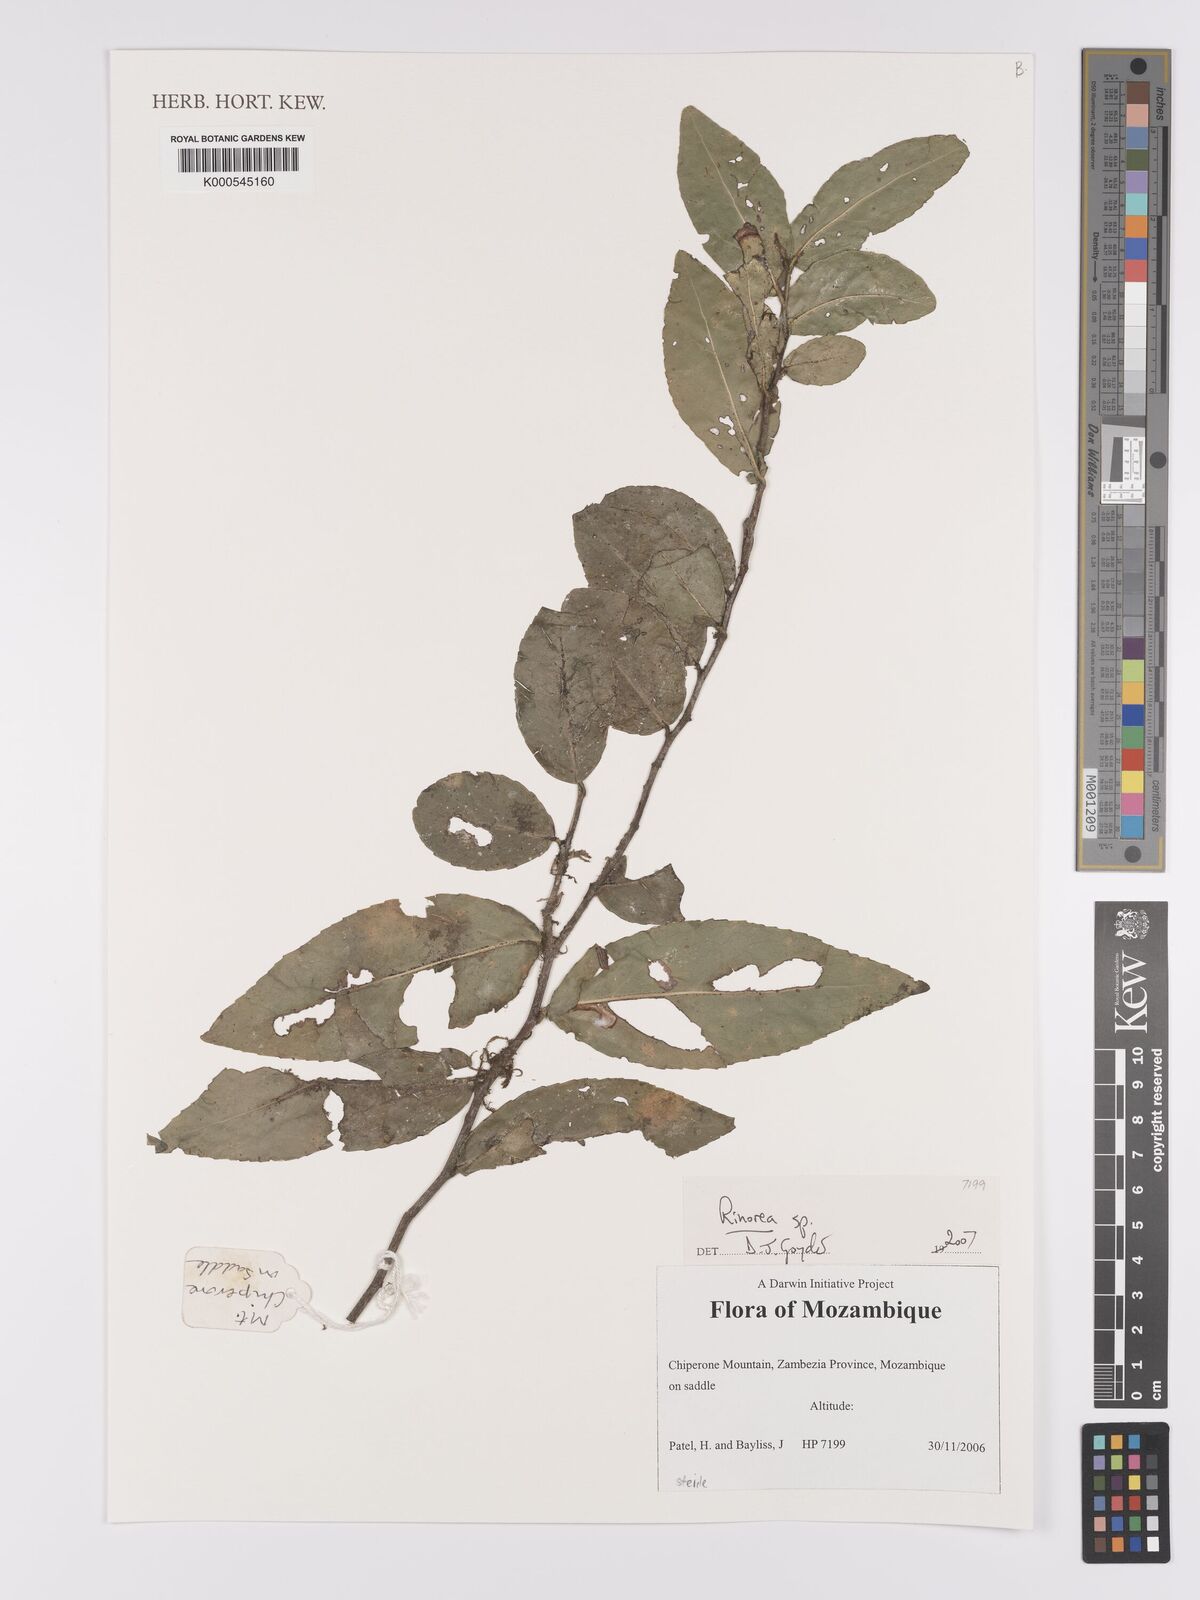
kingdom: Plantae
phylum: Tracheophyta
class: Magnoliopsida
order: Malpighiales
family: Violaceae
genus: Rinorea
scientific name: Rinorea
